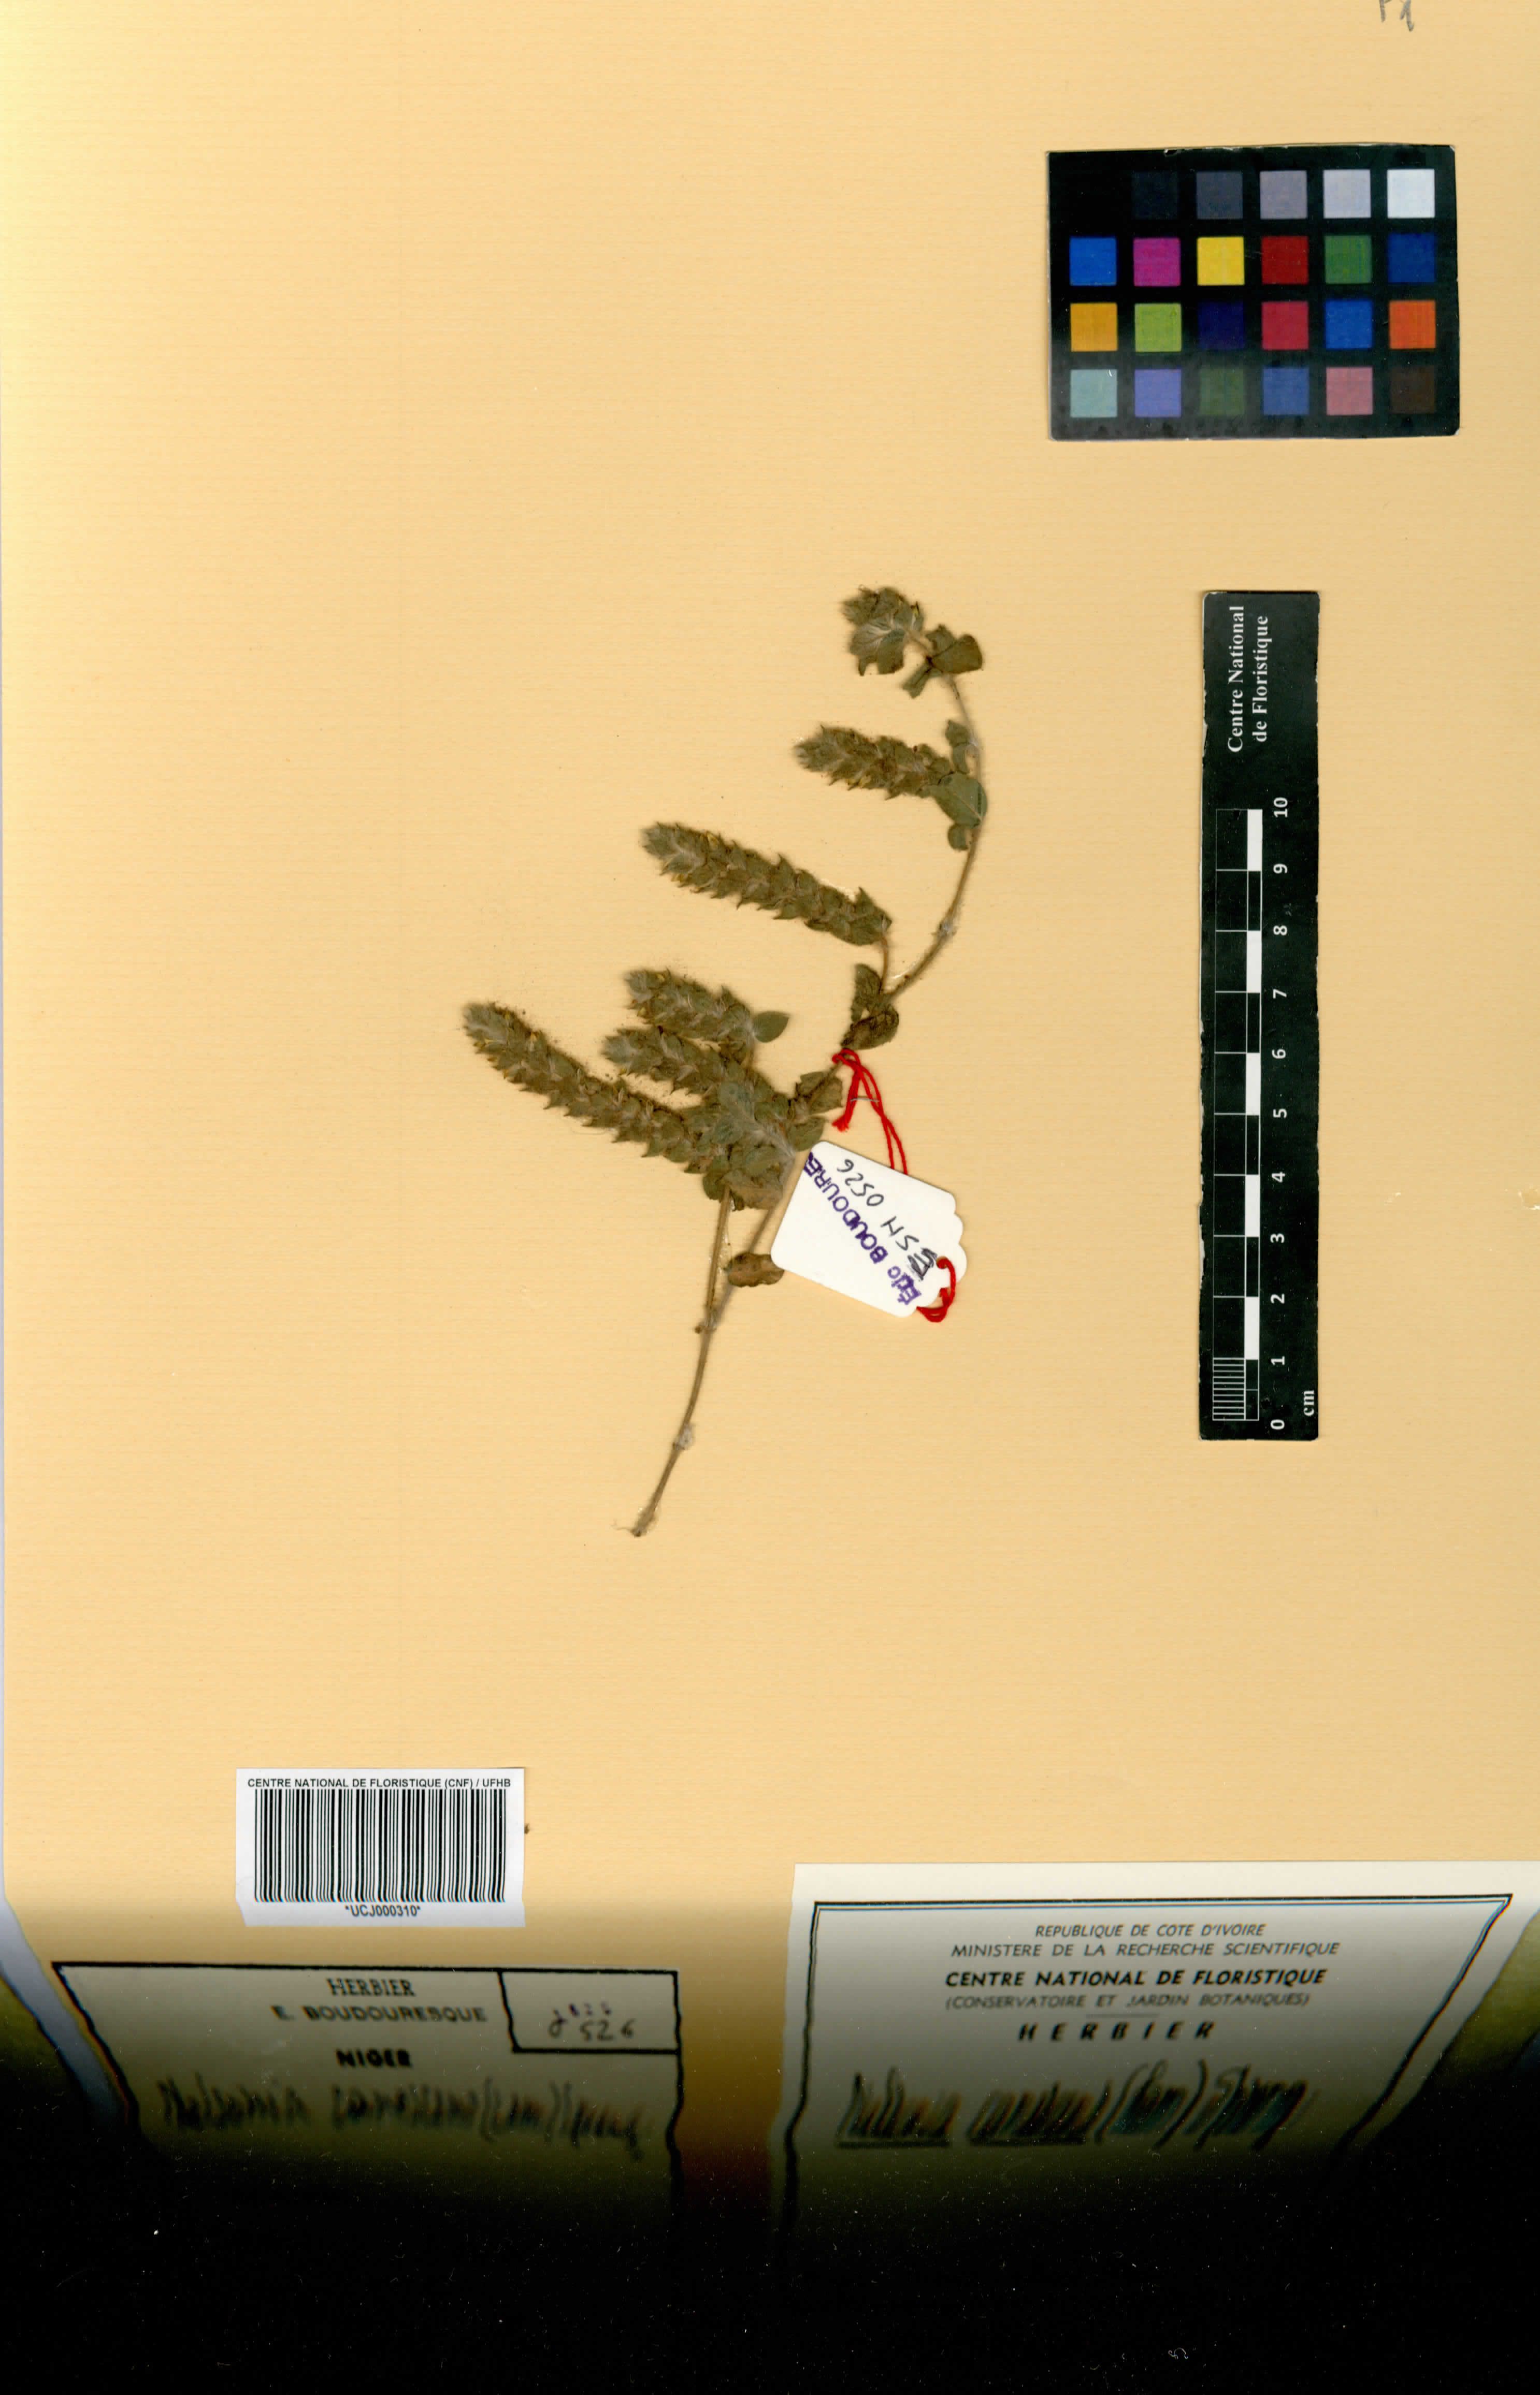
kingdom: Plantae
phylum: Tracheophyta
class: Magnoliopsida
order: Lamiales
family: Acanthaceae
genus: Nelsonia
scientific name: Nelsonia canescens
